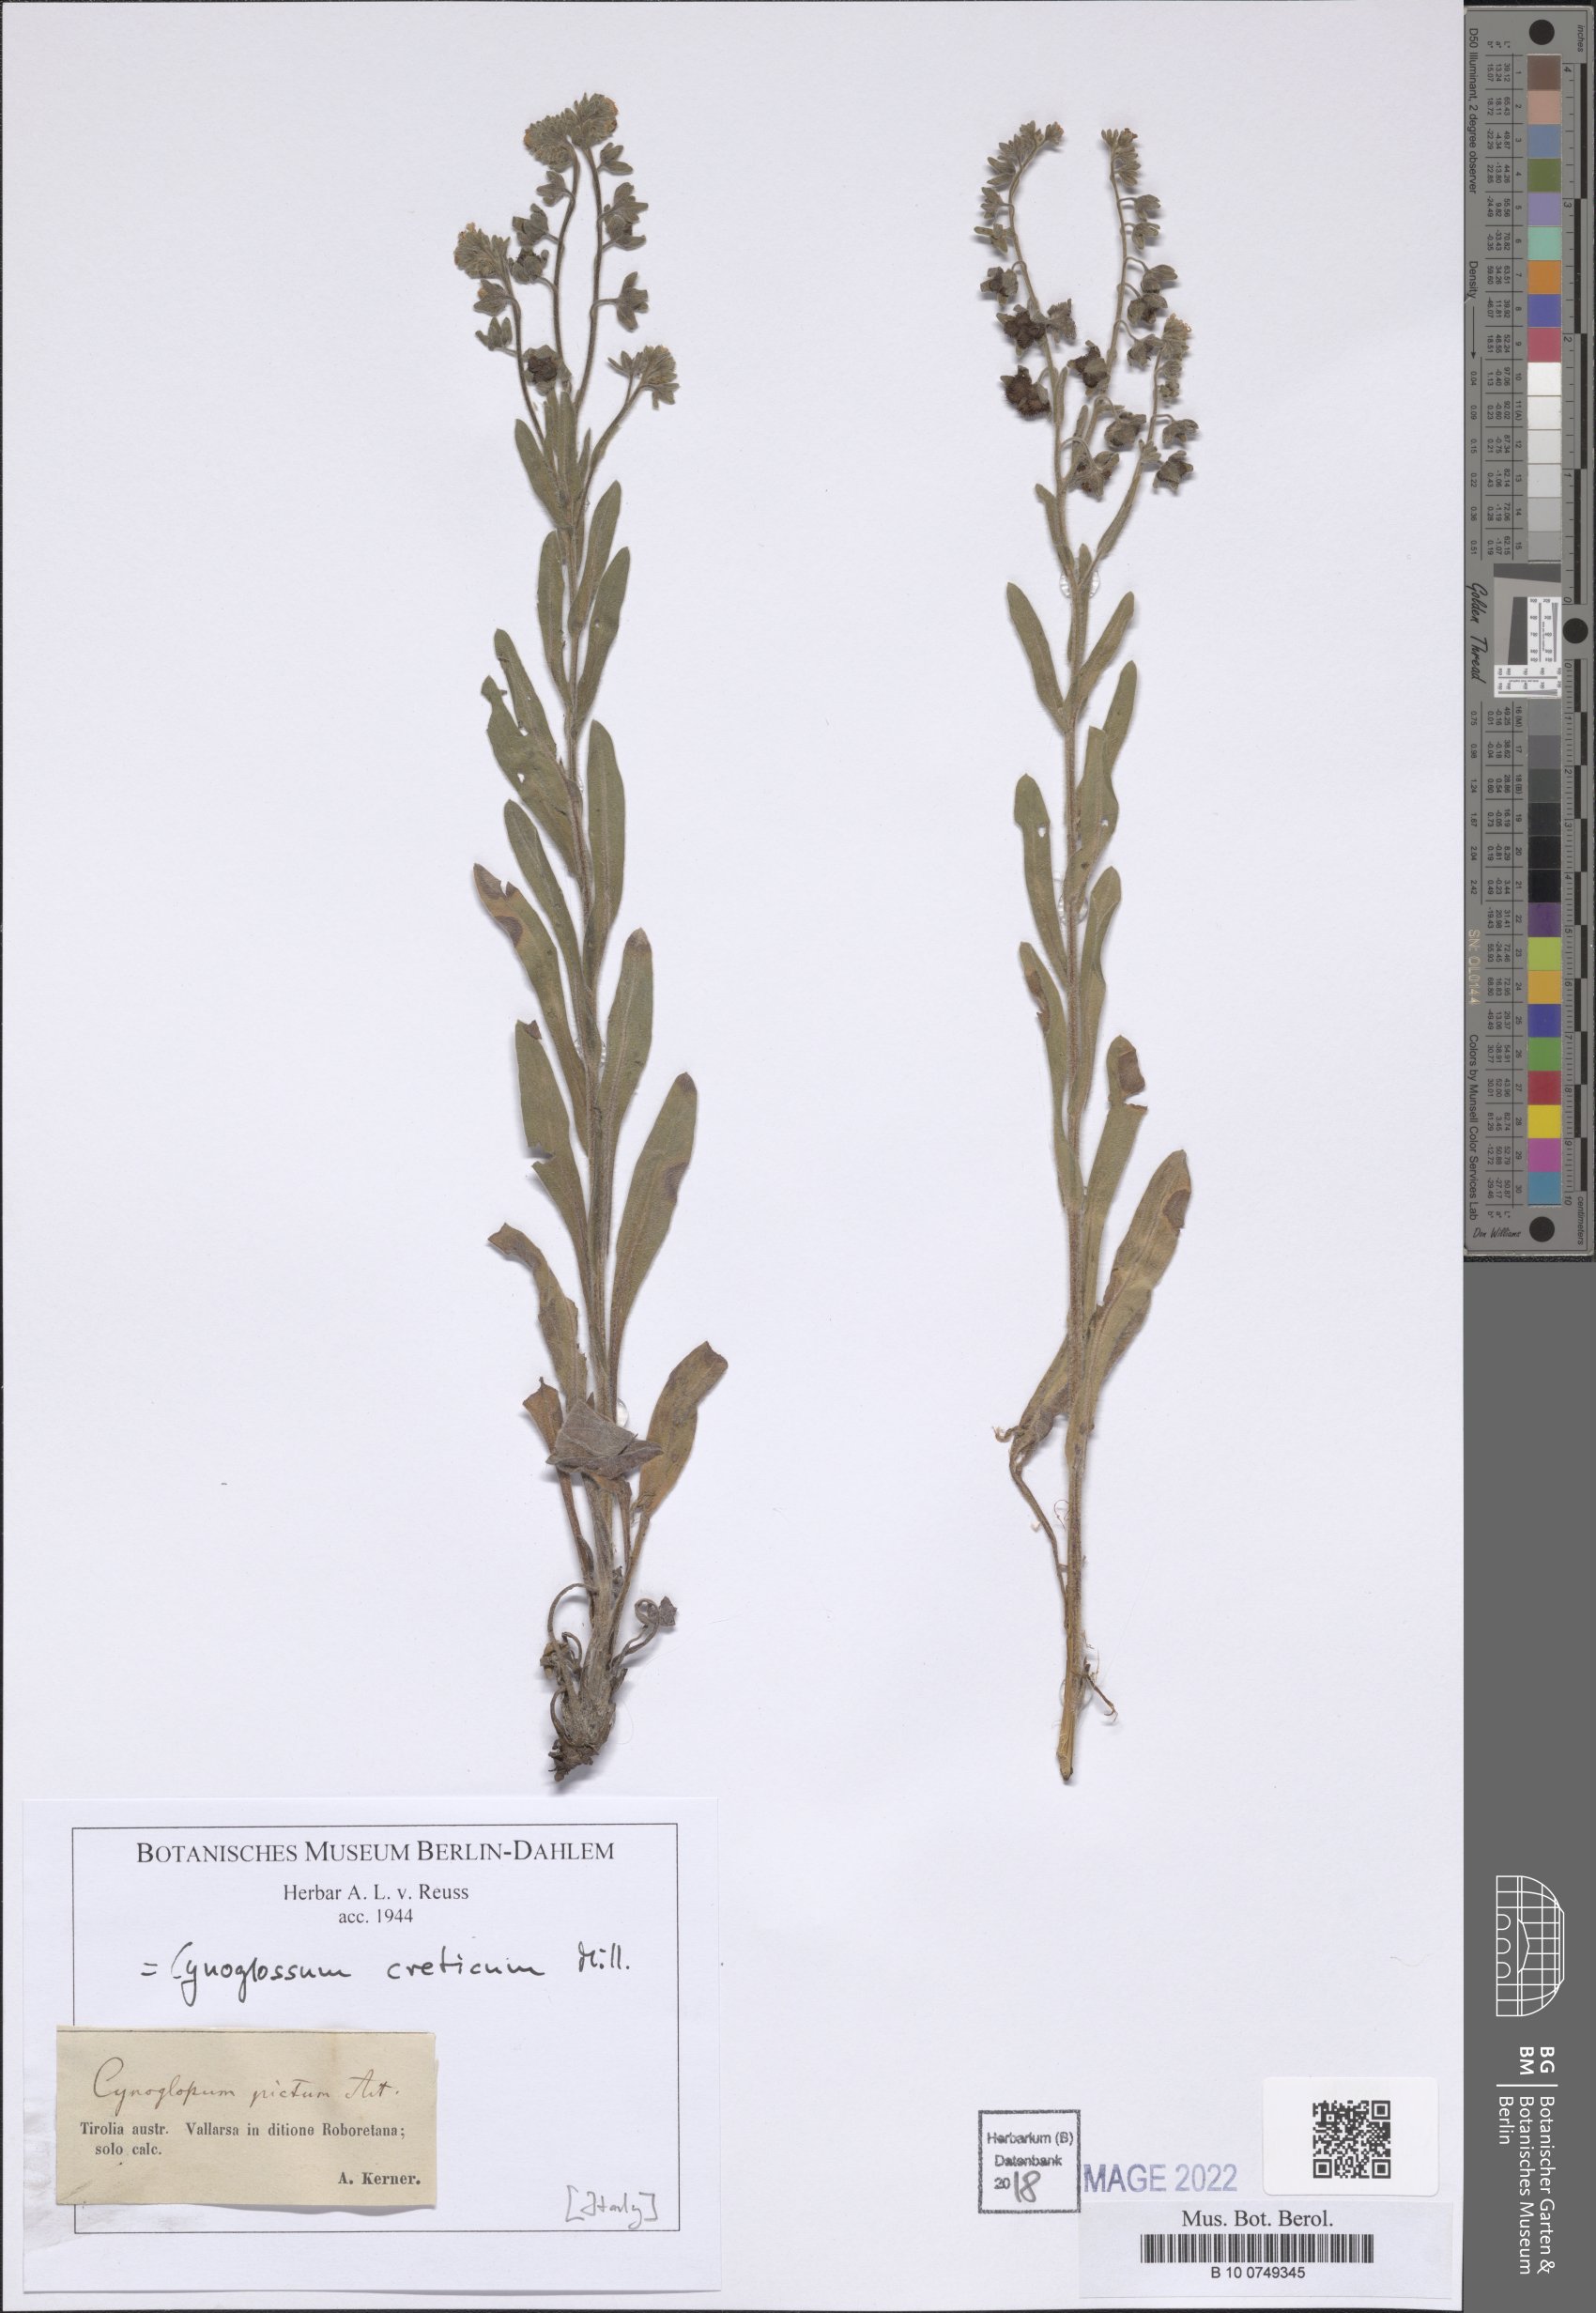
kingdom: Plantae
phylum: Tracheophyta
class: Magnoliopsida
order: Boraginales
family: Boraginaceae
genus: Cynoglossum
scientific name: Cynoglossum creticum
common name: Blue hound's tongue
